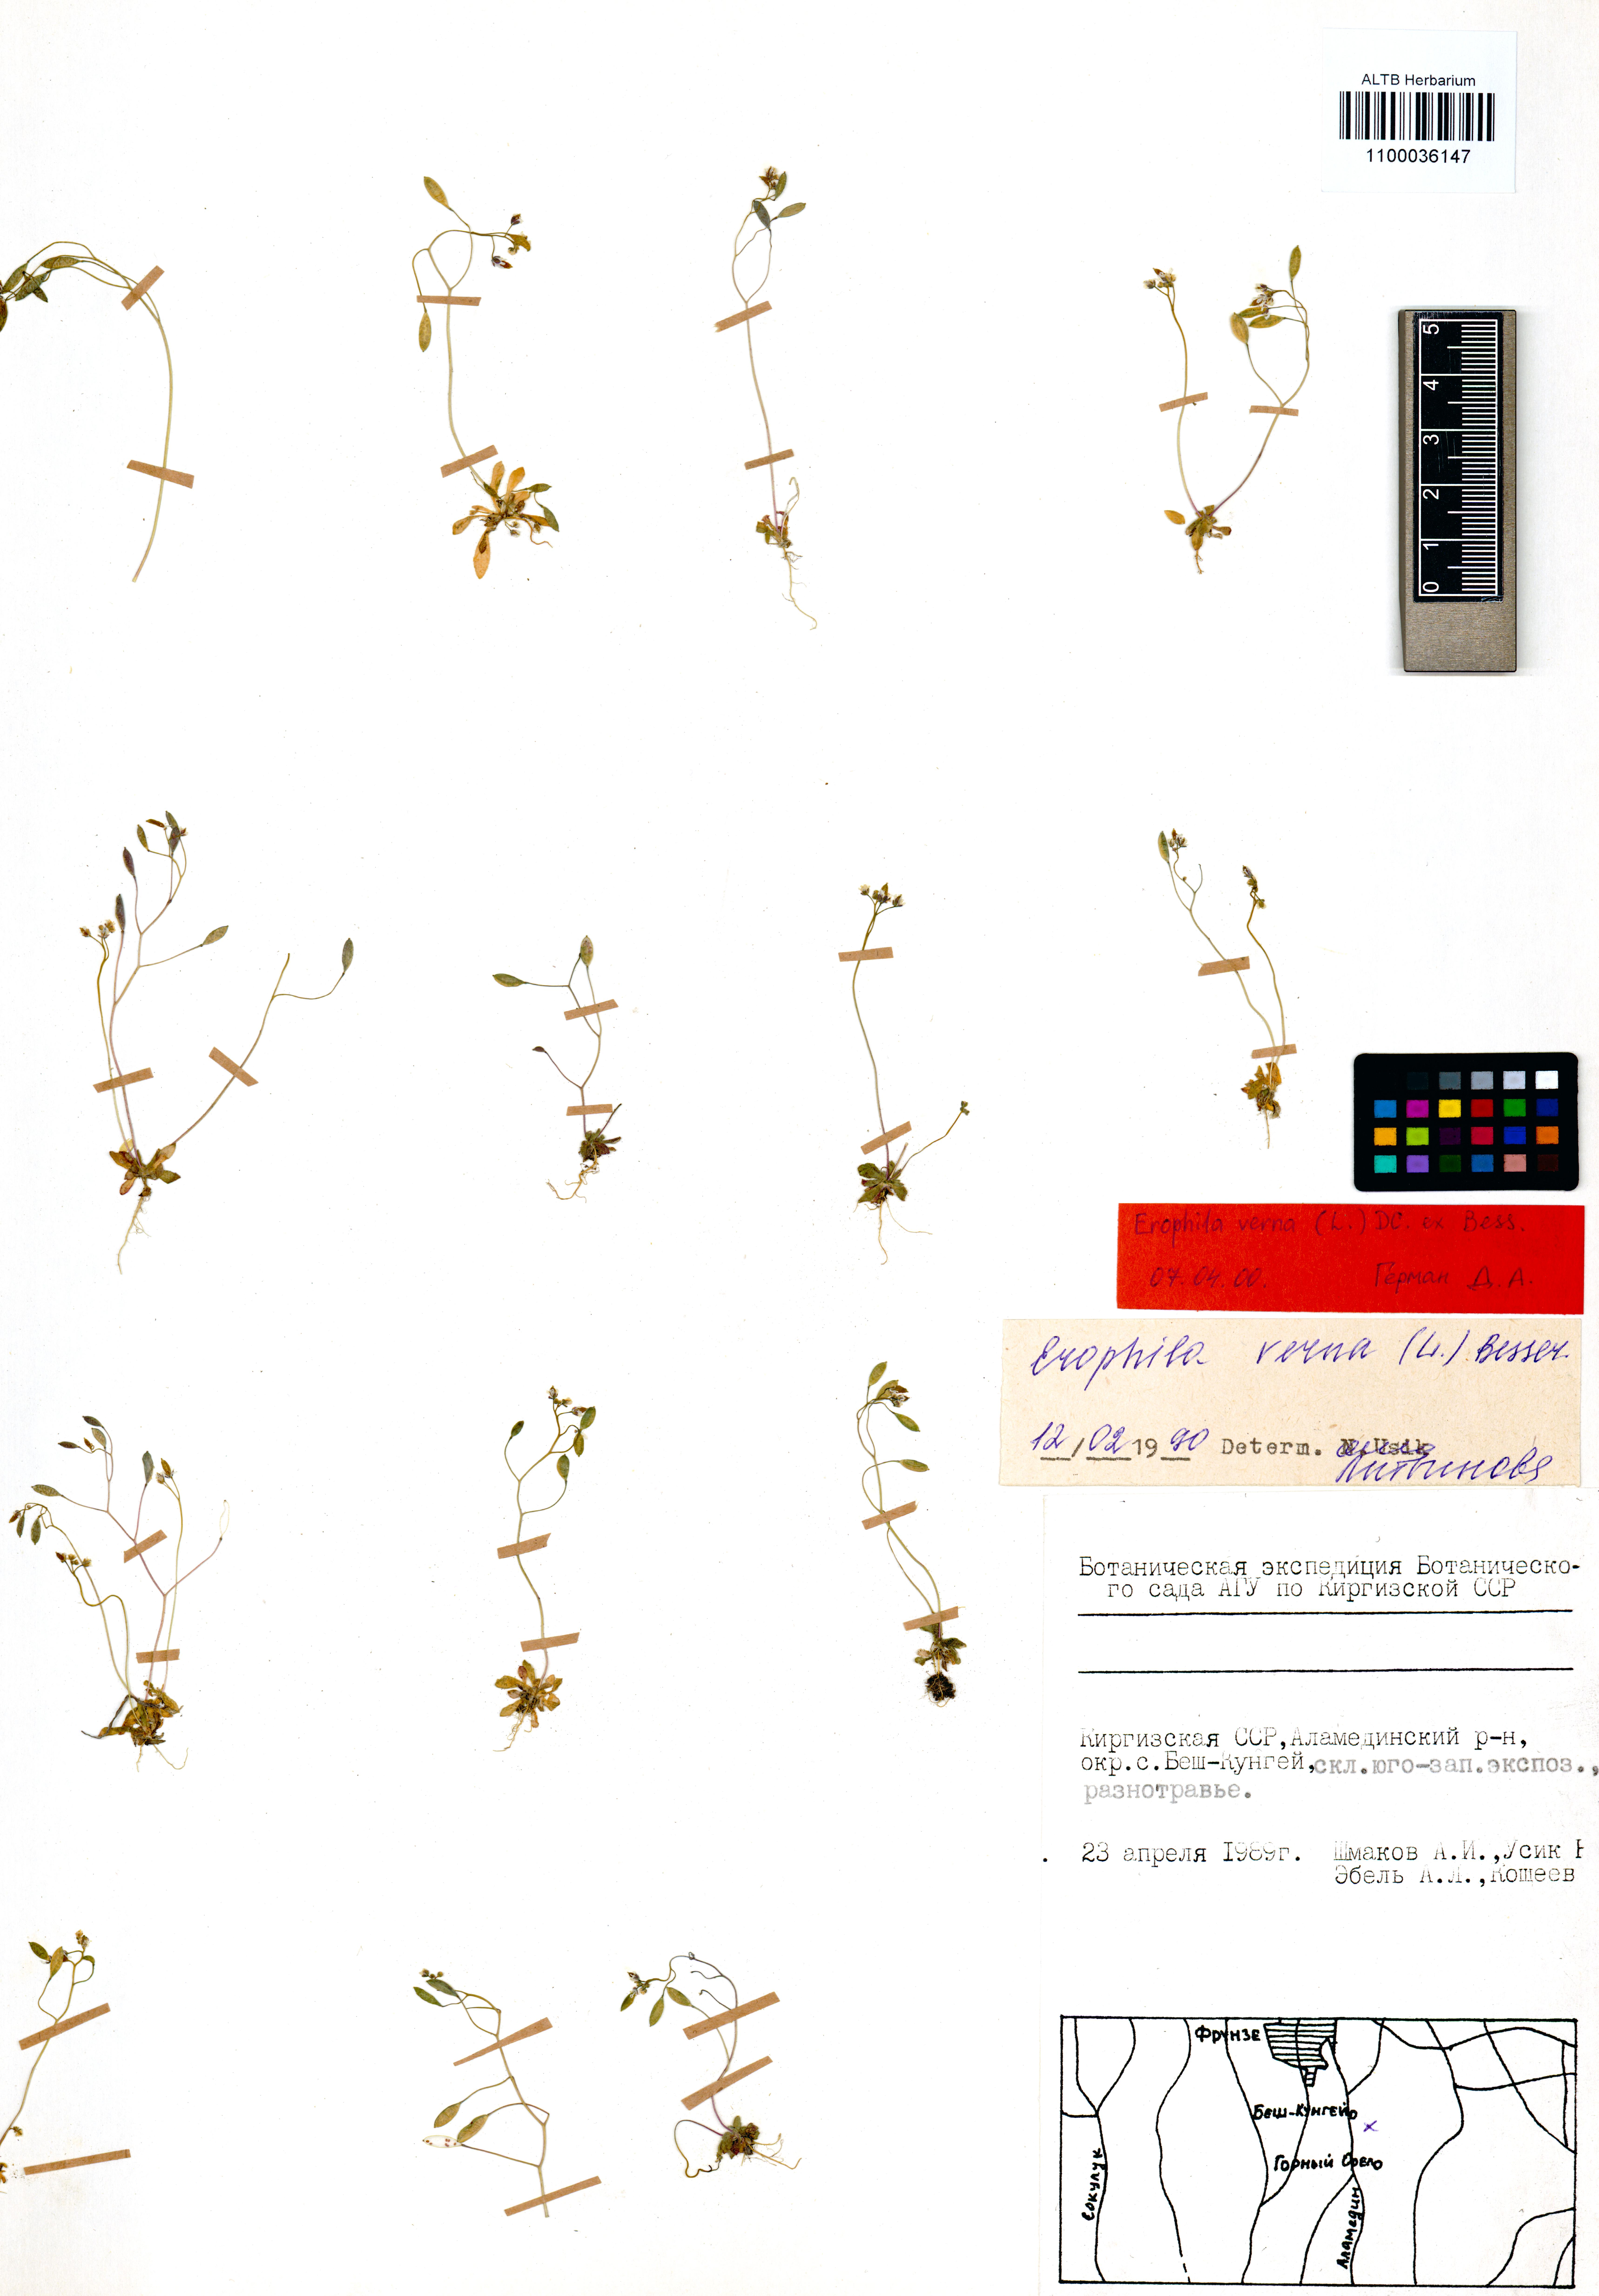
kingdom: Plantae
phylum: Tracheophyta
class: Magnoliopsida
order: Brassicales
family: Brassicaceae
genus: Draba
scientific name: Draba verna
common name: Spring draba
